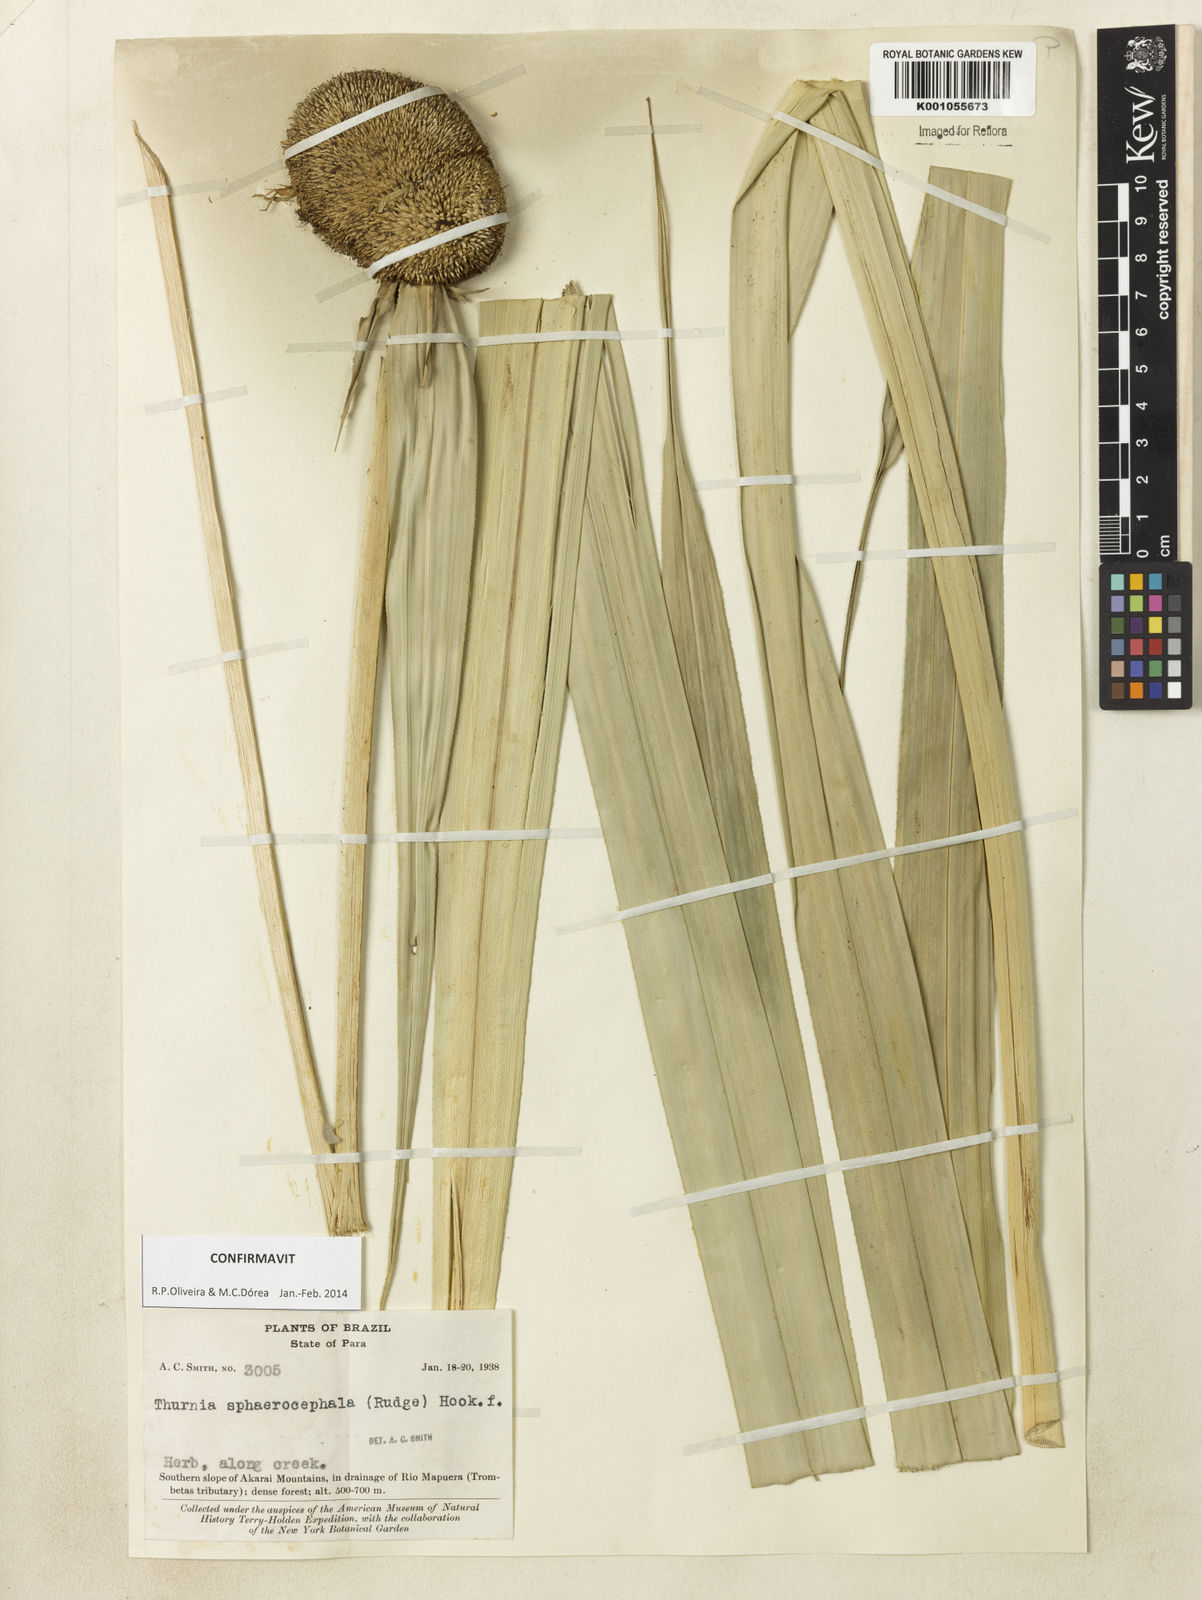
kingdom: Plantae
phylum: Tracheophyta
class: Liliopsida
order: Poales
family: Thurniaceae
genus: Thurnia
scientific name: Thurnia sphaerocephala
